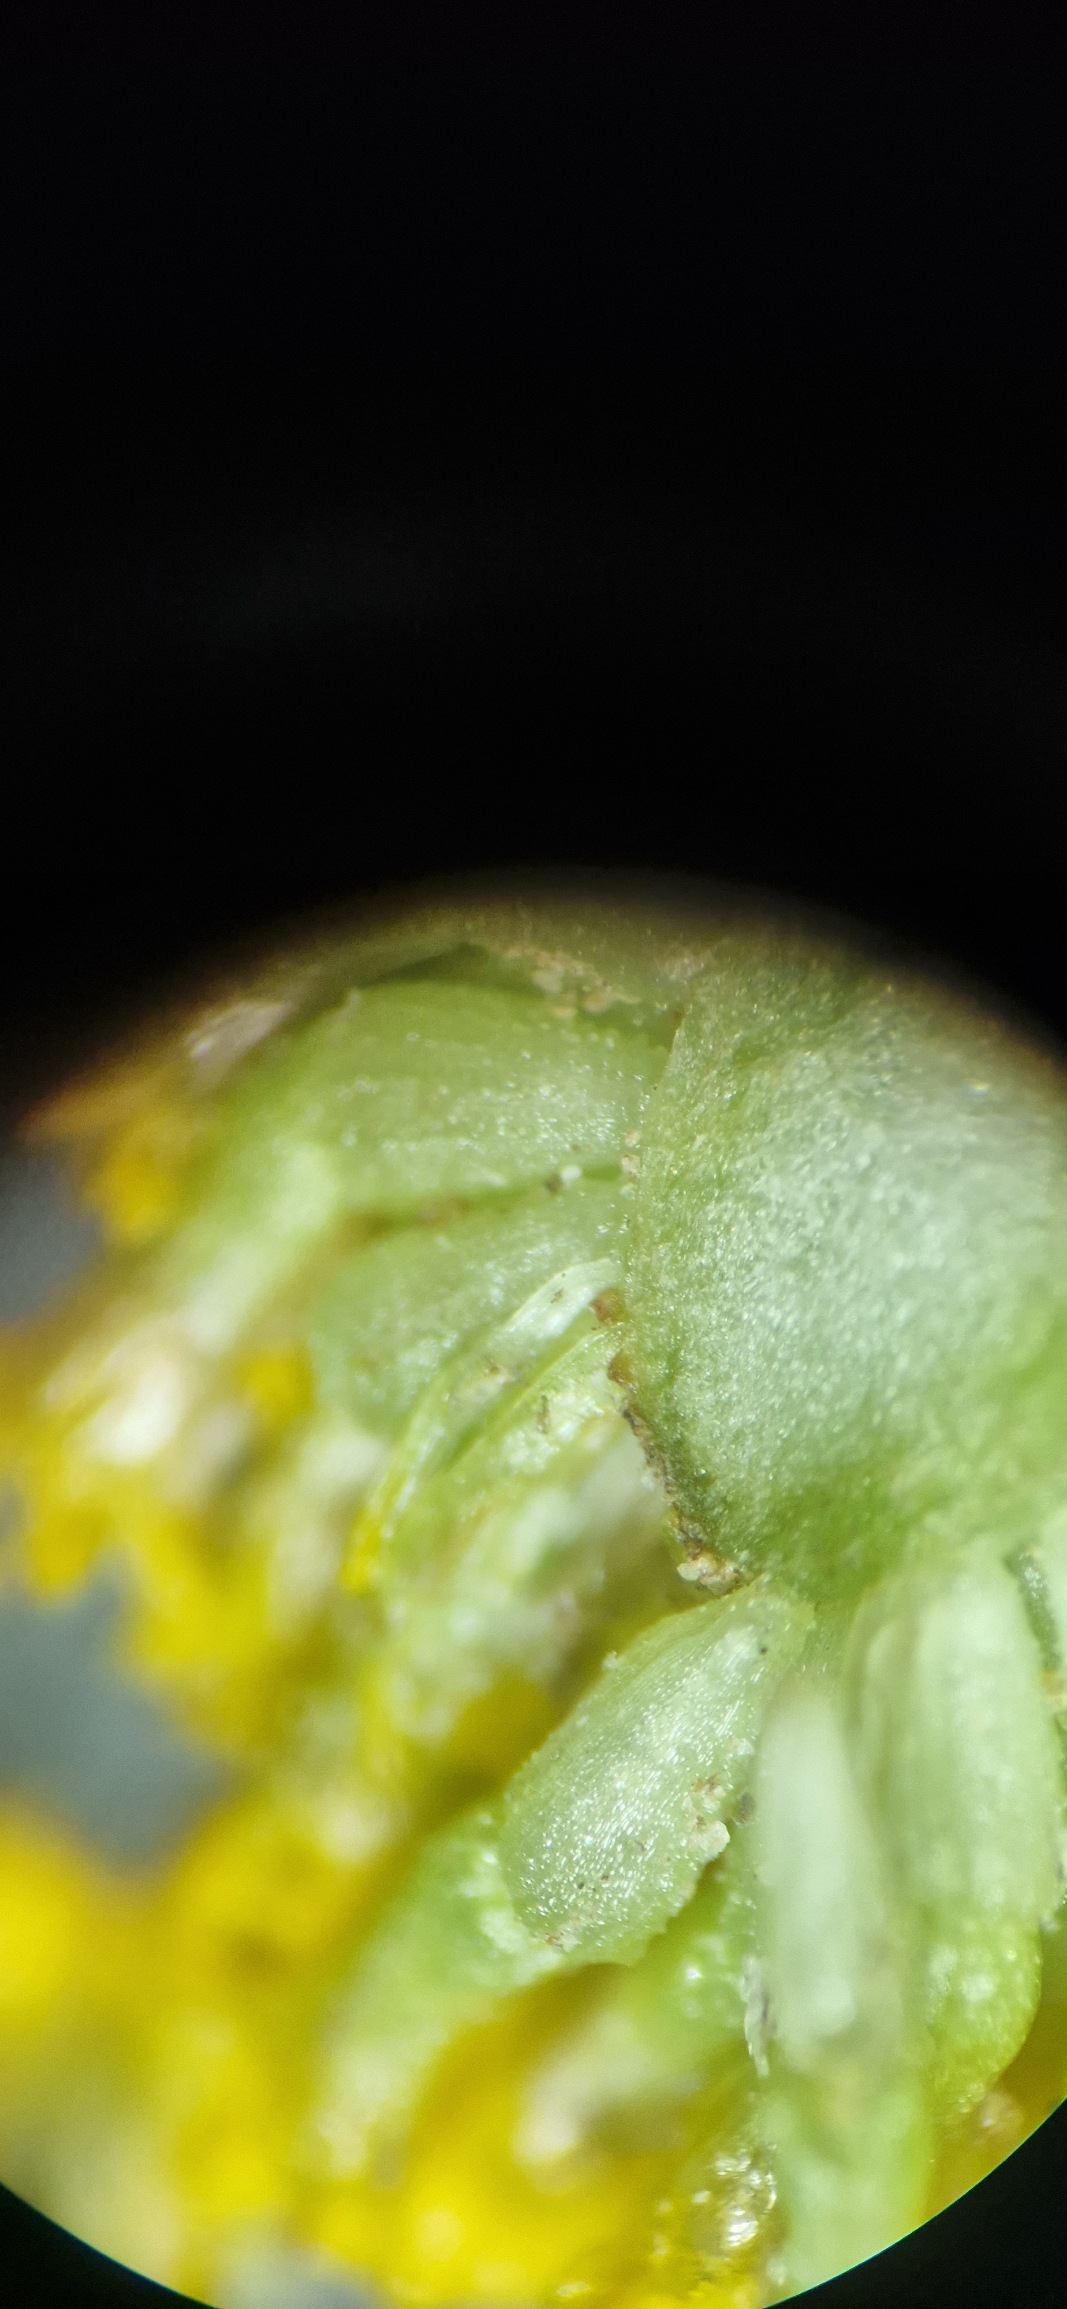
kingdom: Plantae
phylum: Tracheophyta
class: Magnoliopsida
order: Asterales
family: Asteraceae
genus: Anthemis
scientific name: Anthemis cotula
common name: Stinkende gåseurt
